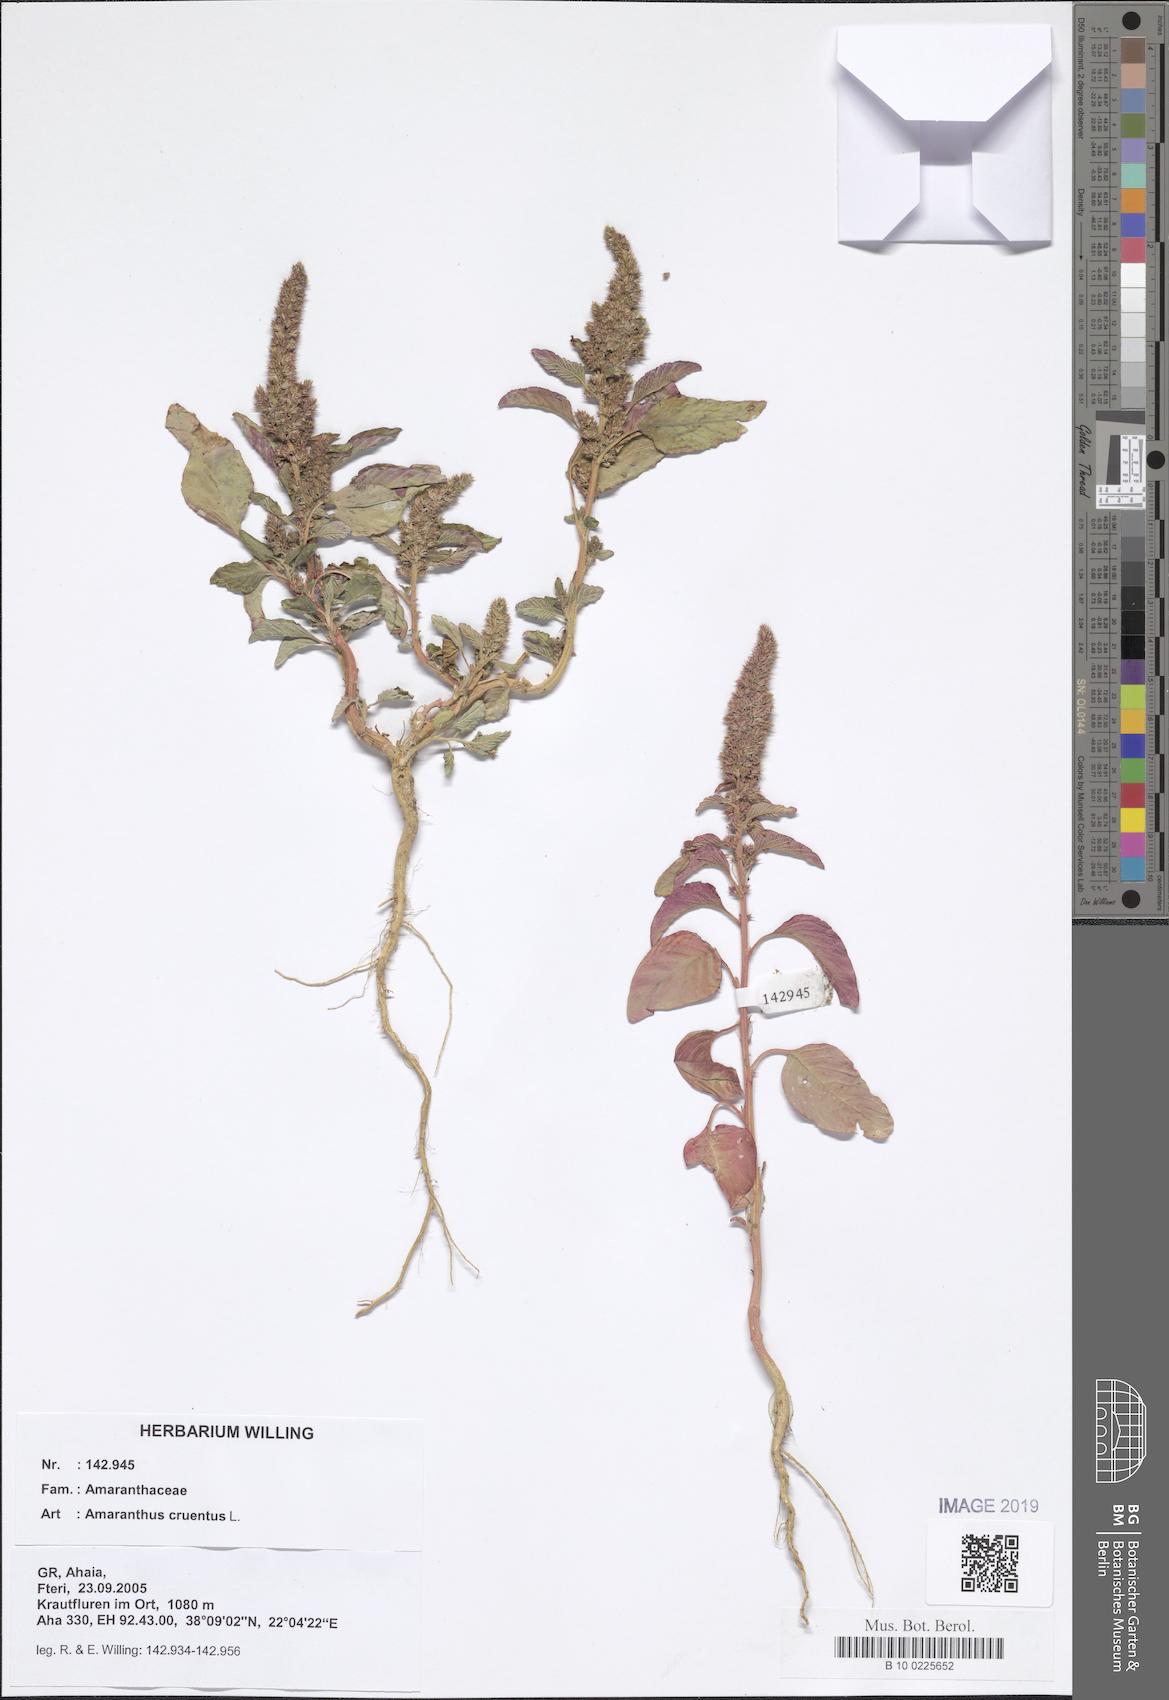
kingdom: Plantae
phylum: Tracheophyta
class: Magnoliopsida
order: Caryophyllales
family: Amaranthaceae
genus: Amaranthus
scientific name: Amaranthus cruentus
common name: Purple amaranth
